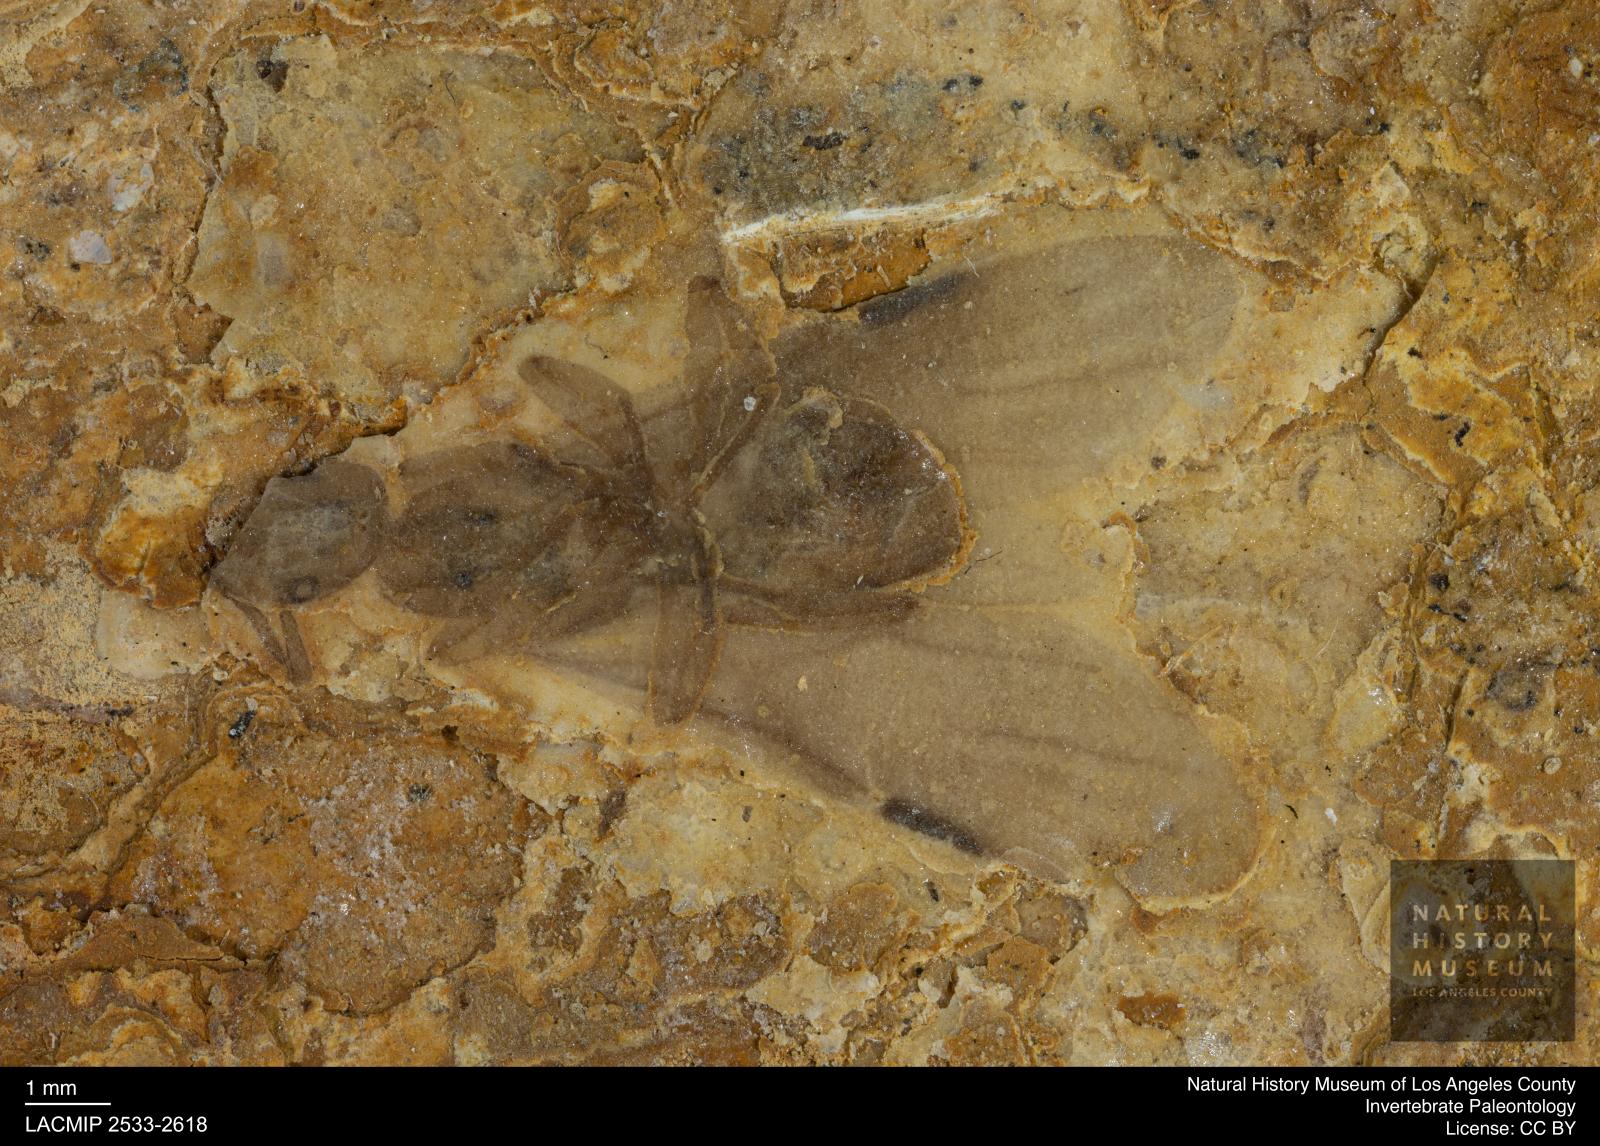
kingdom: Animalia
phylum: Arthropoda
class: Insecta
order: Hymenoptera
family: Formicidae
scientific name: Formicidae
